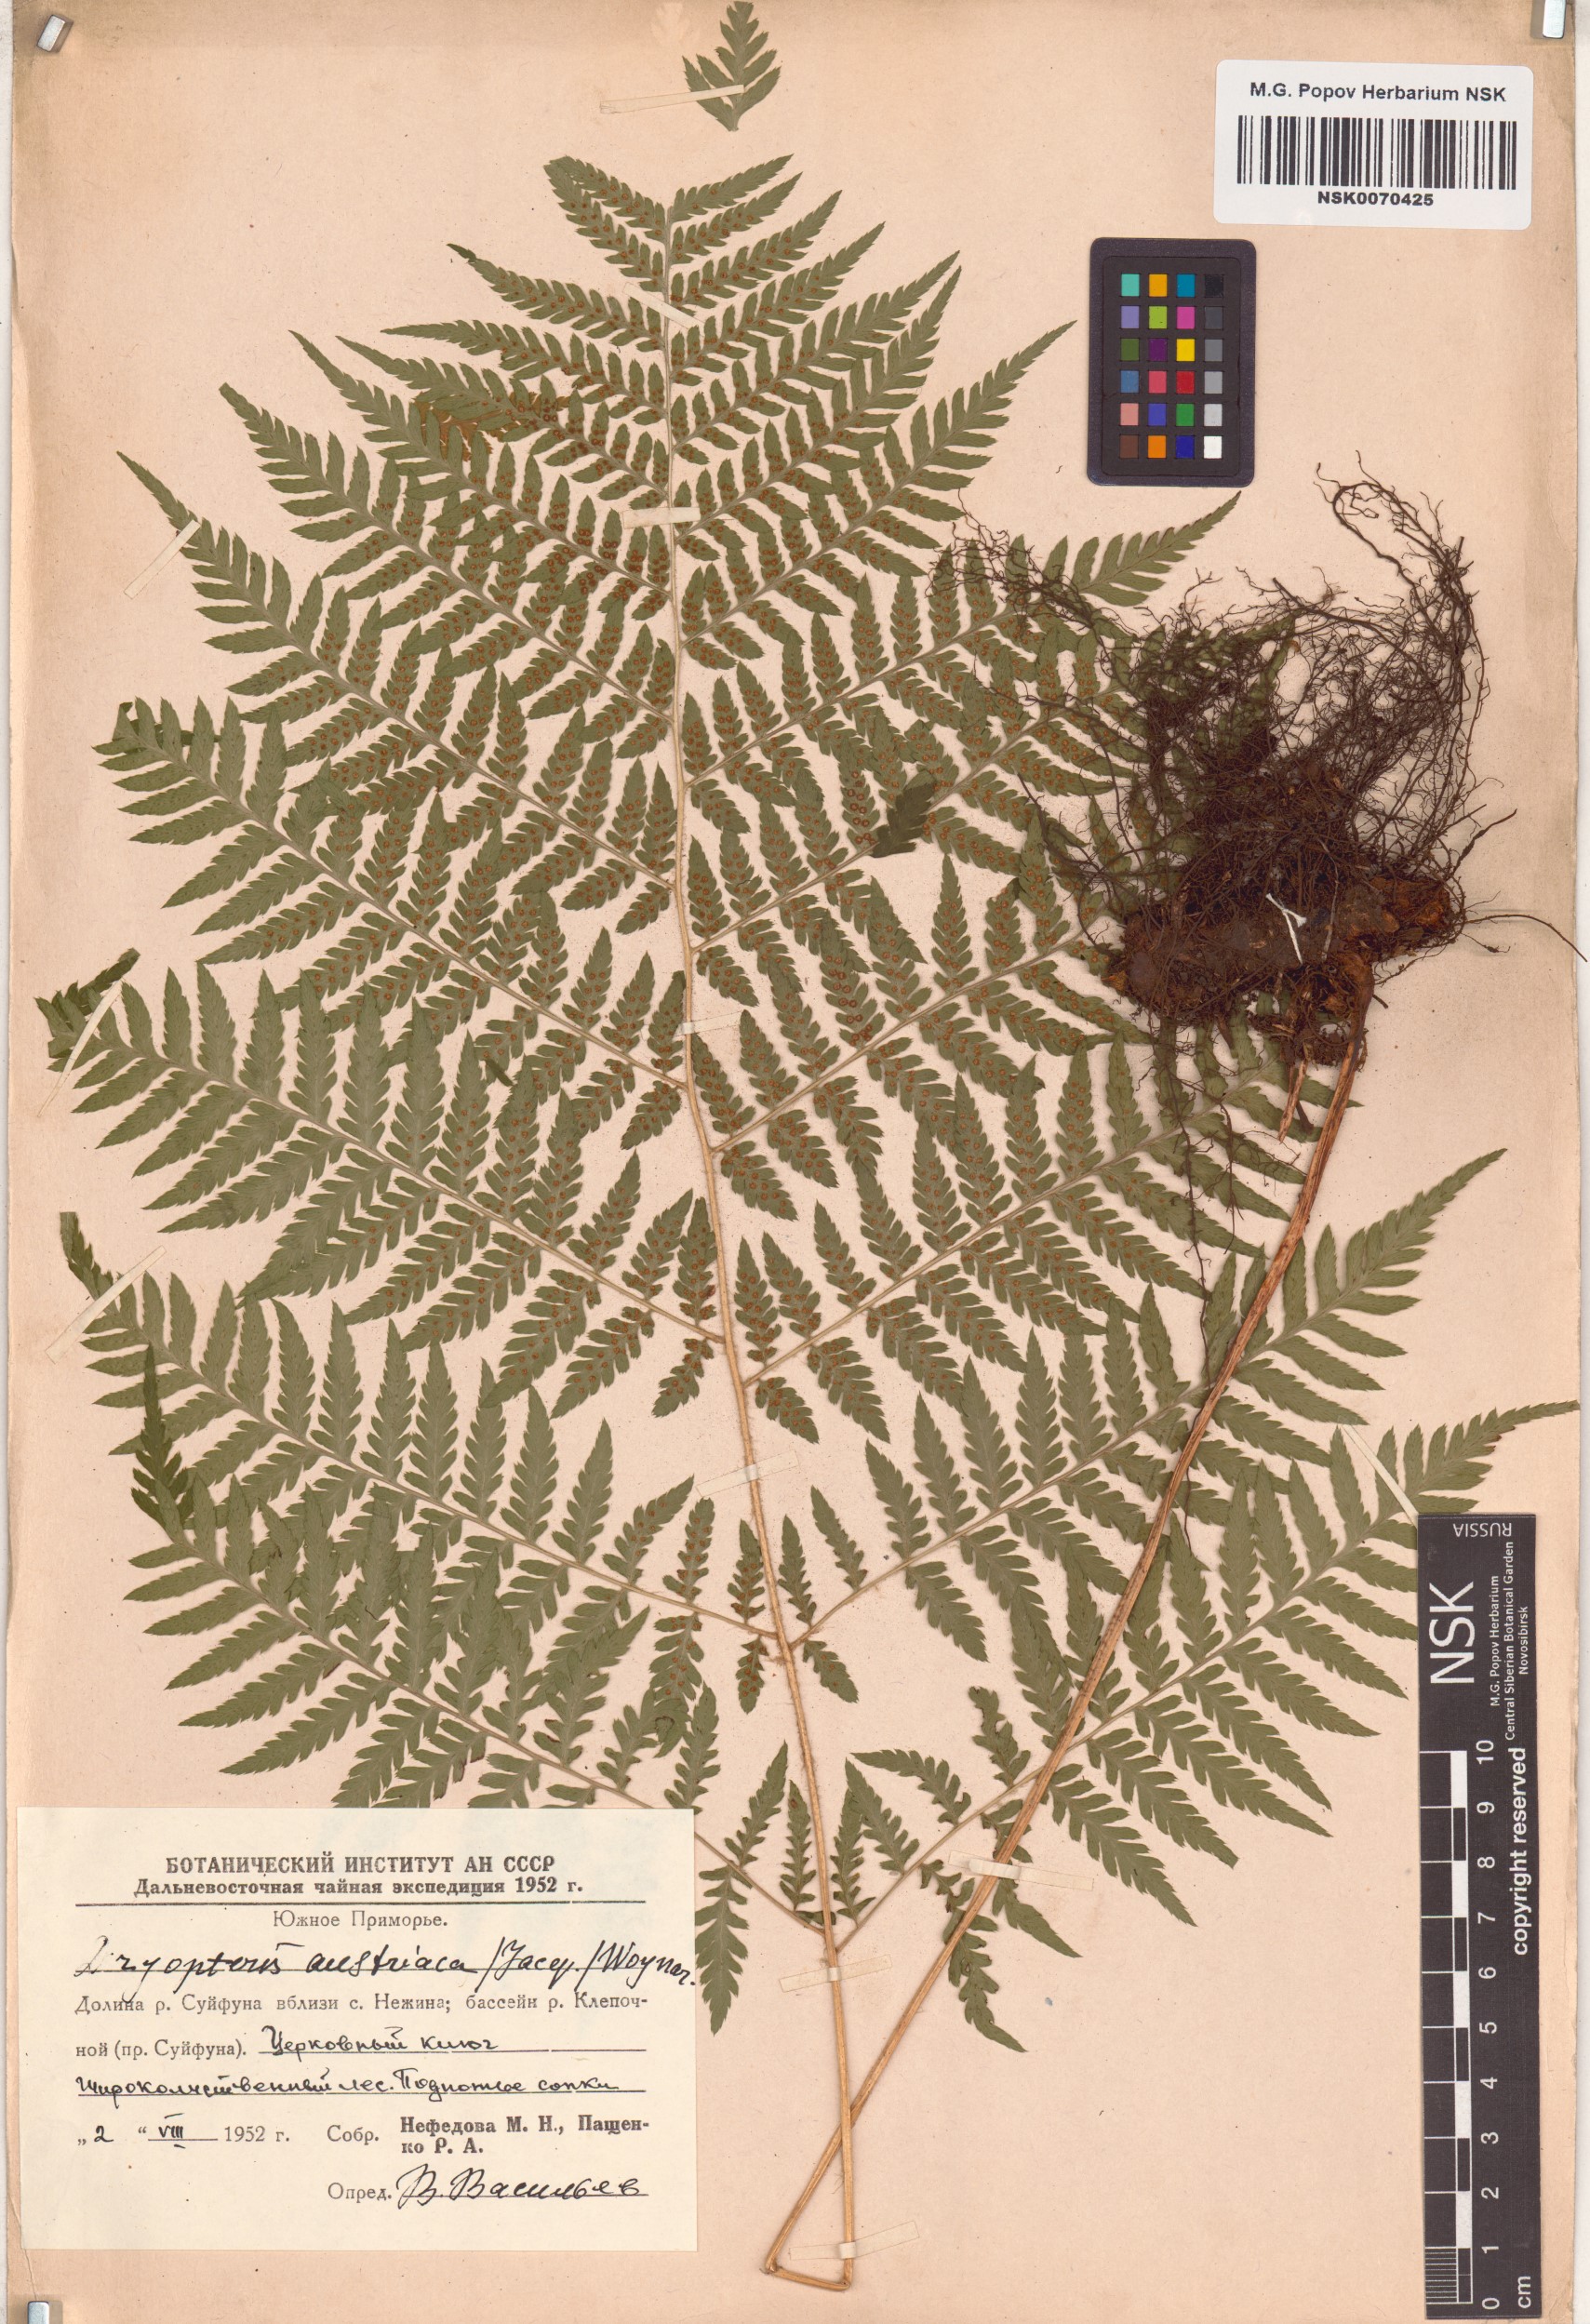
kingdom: Plantae
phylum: Tracheophyta
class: Polypodiopsida
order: Polypodiales
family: Dryopteridaceae
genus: Dryopteris
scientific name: Dryopteris dilatata
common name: Broad buckler-fern
